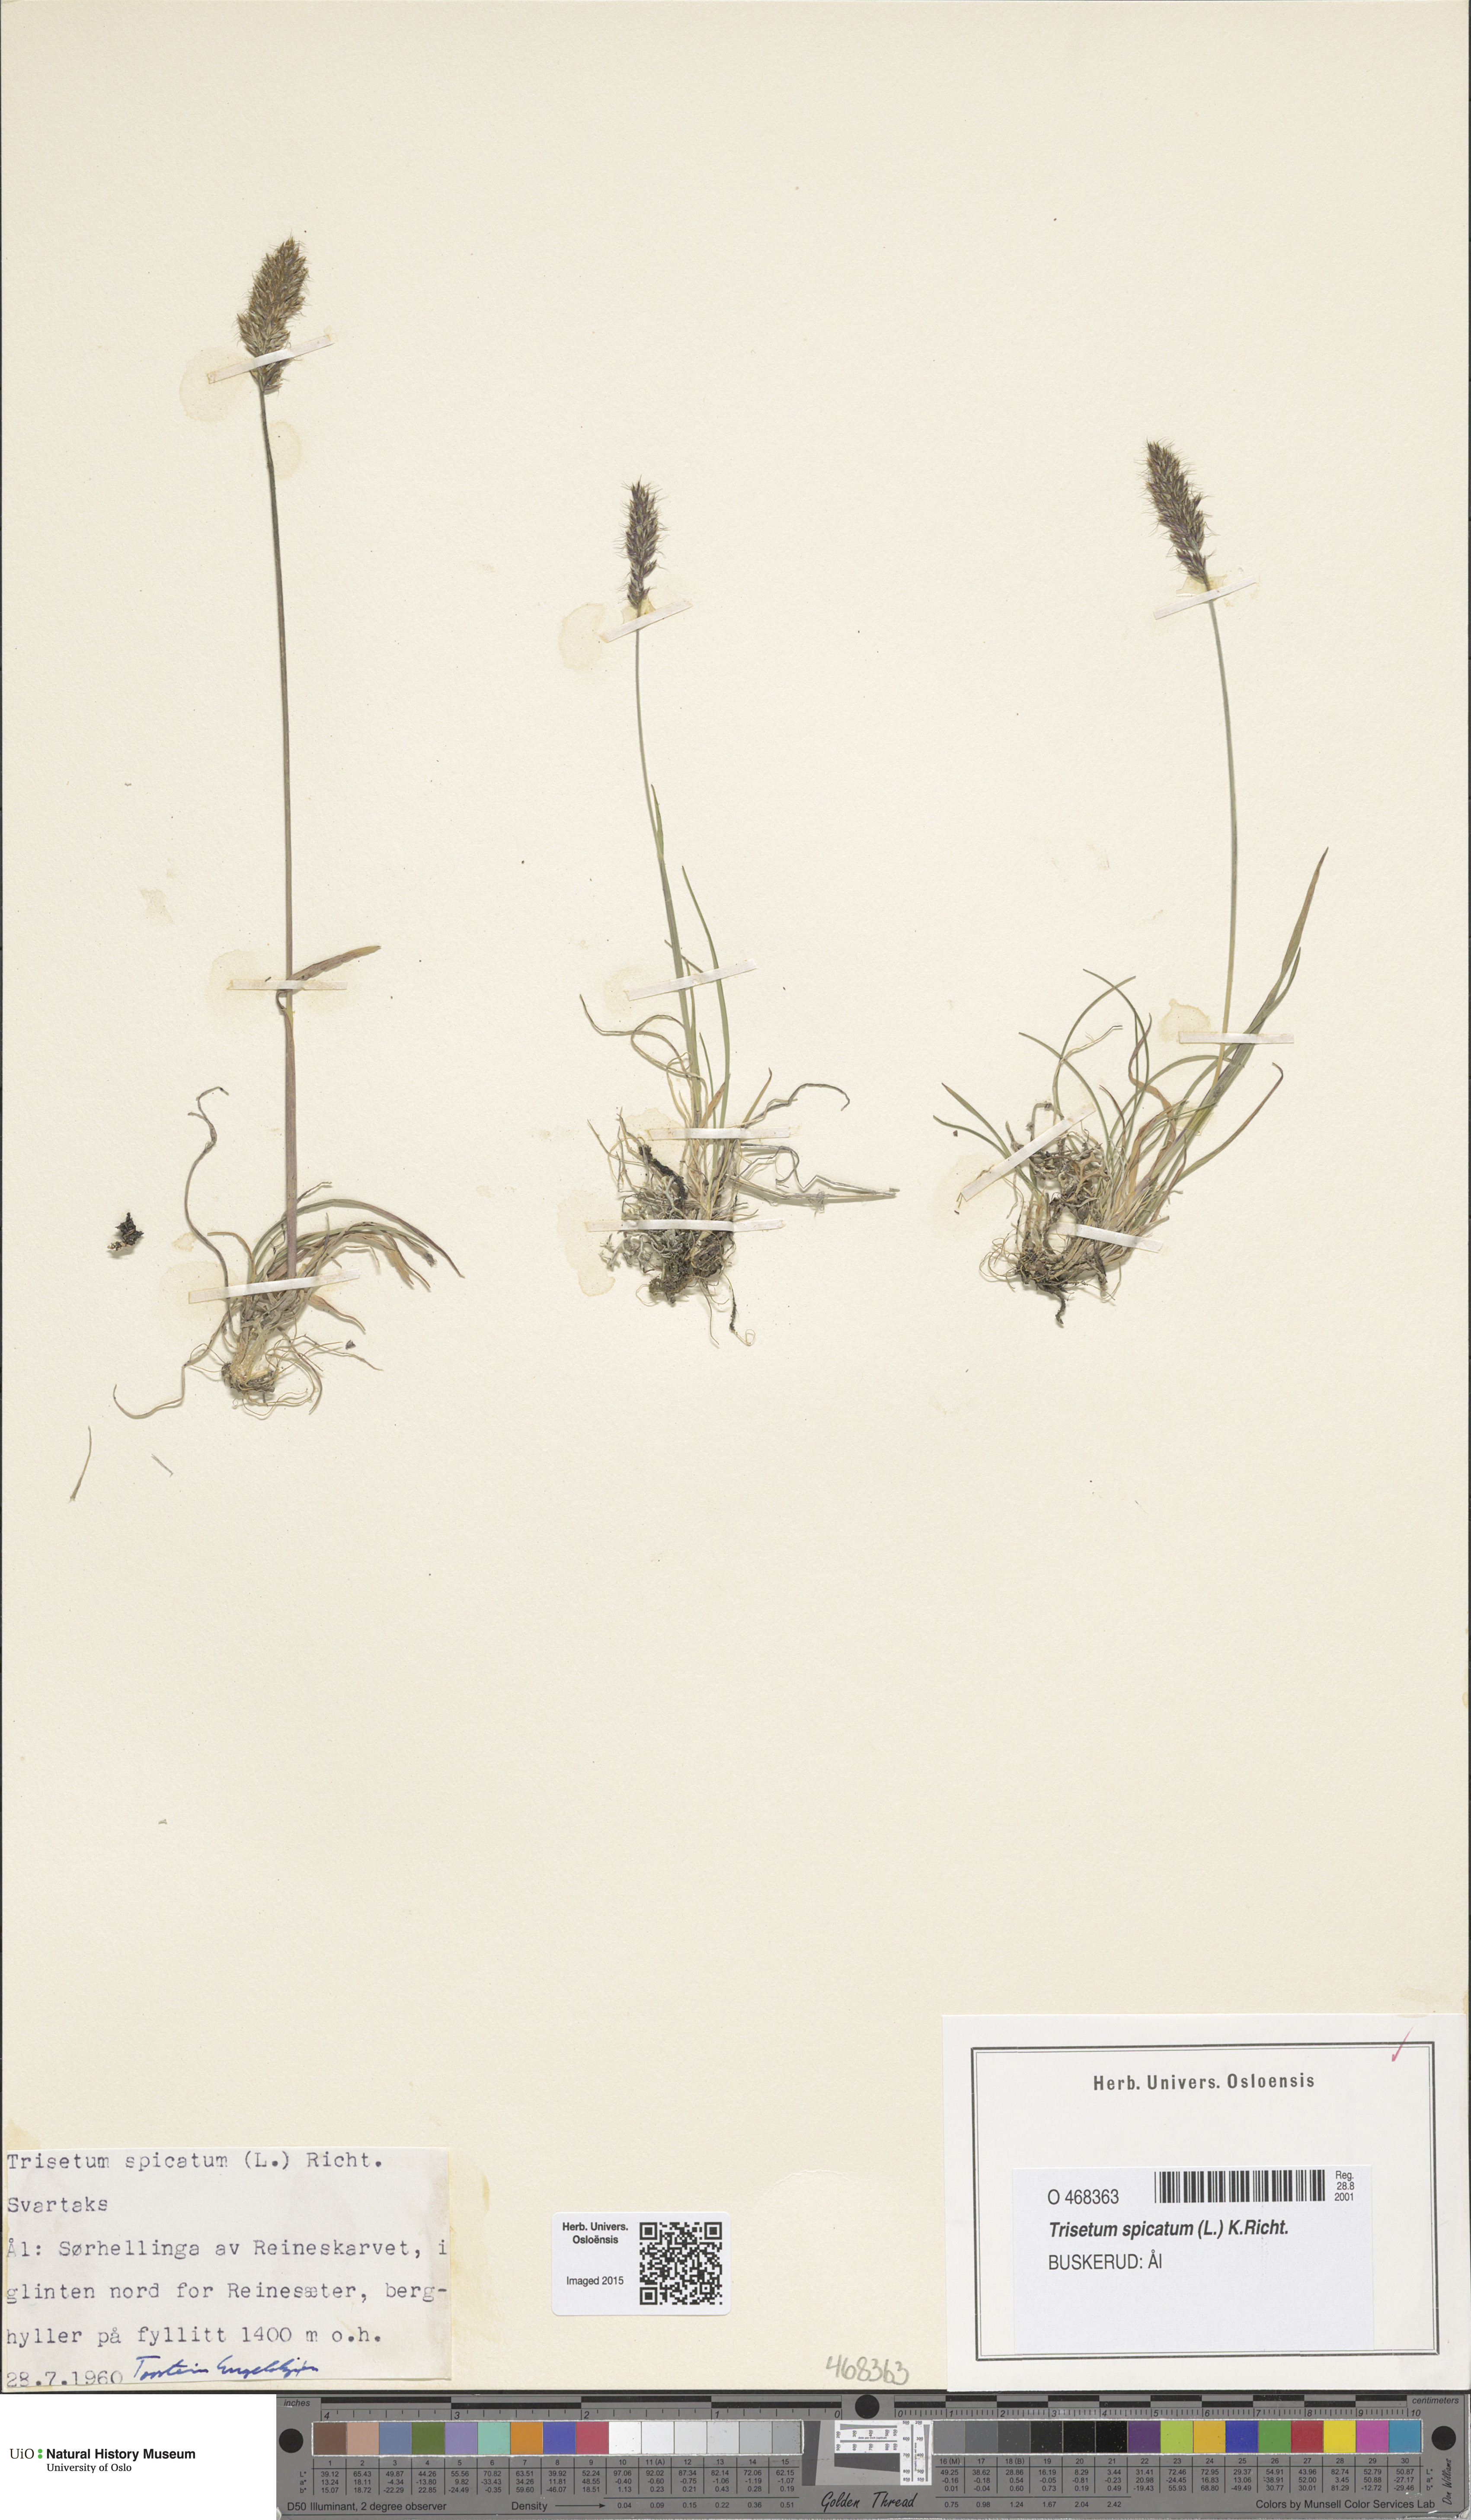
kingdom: Plantae
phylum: Tracheophyta
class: Liliopsida
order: Poales
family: Poaceae
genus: Koeleria
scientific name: Koeleria spicata
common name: Mountain trisetum
